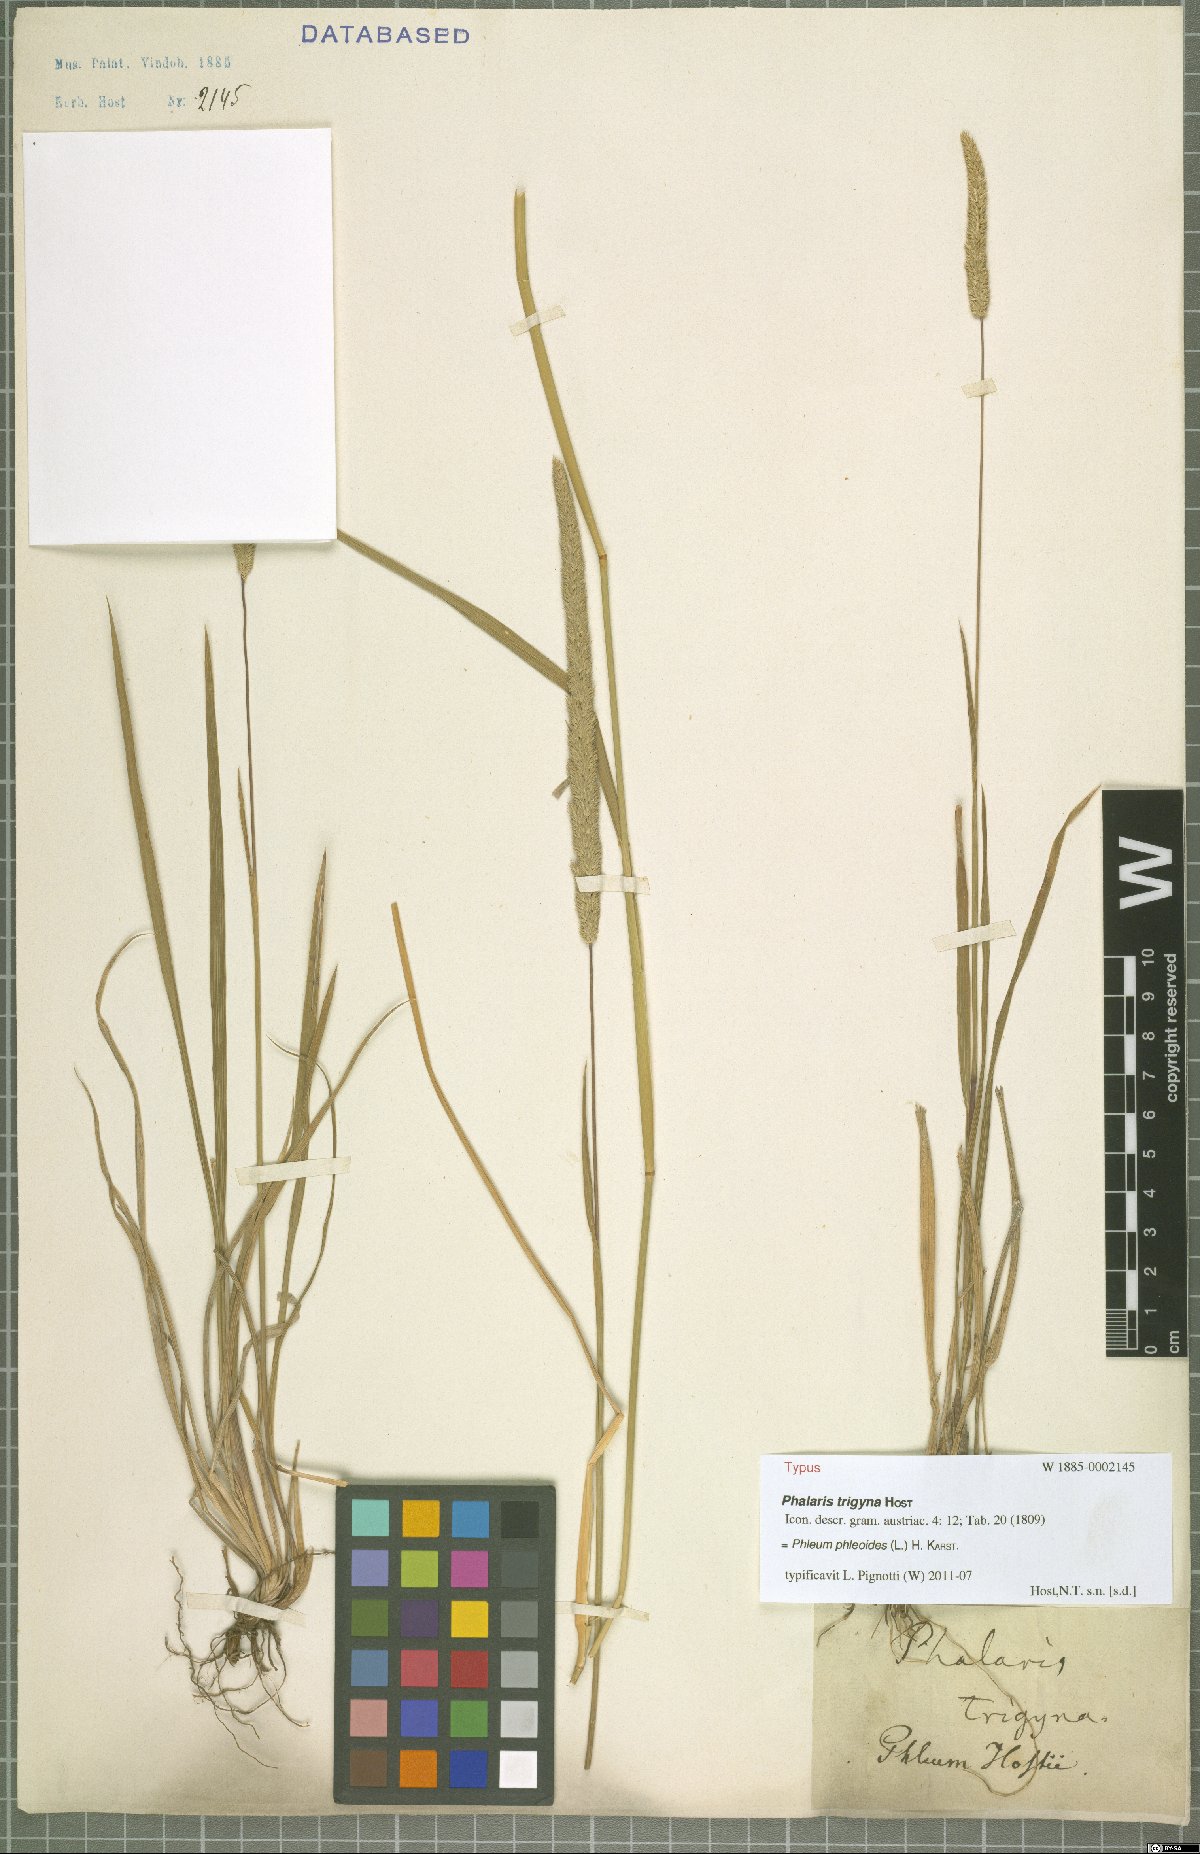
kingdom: Plantae
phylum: Tracheophyta
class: Liliopsida
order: Poales
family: Poaceae
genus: Phleum
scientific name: Phleum phleoides
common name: Purple-stem cat's-tail
